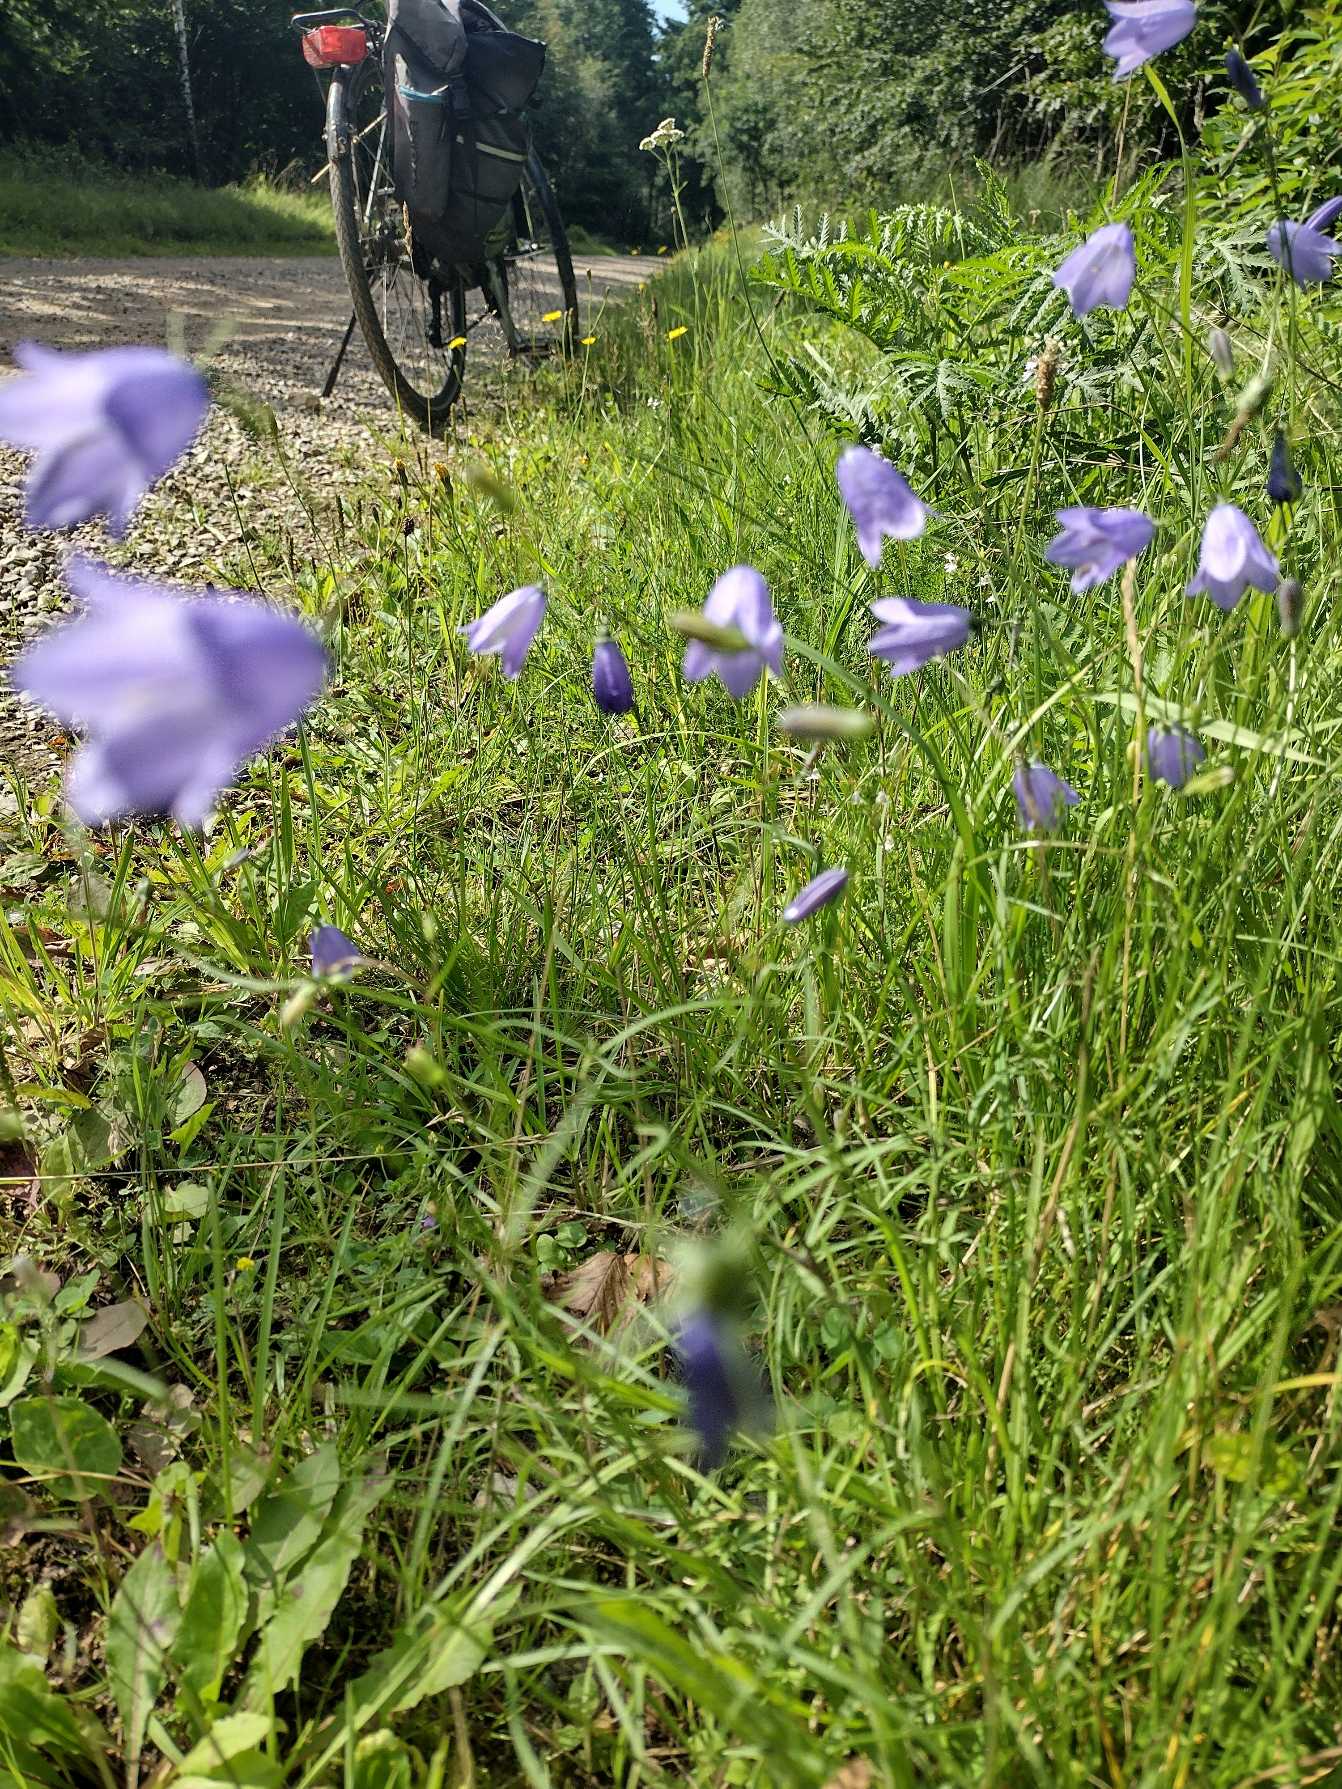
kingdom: Plantae
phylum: Tracheophyta
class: Magnoliopsida
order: Asterales
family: Campanulaceae
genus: Campanula
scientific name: Campanula rotundifolia
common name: Liden klokke
